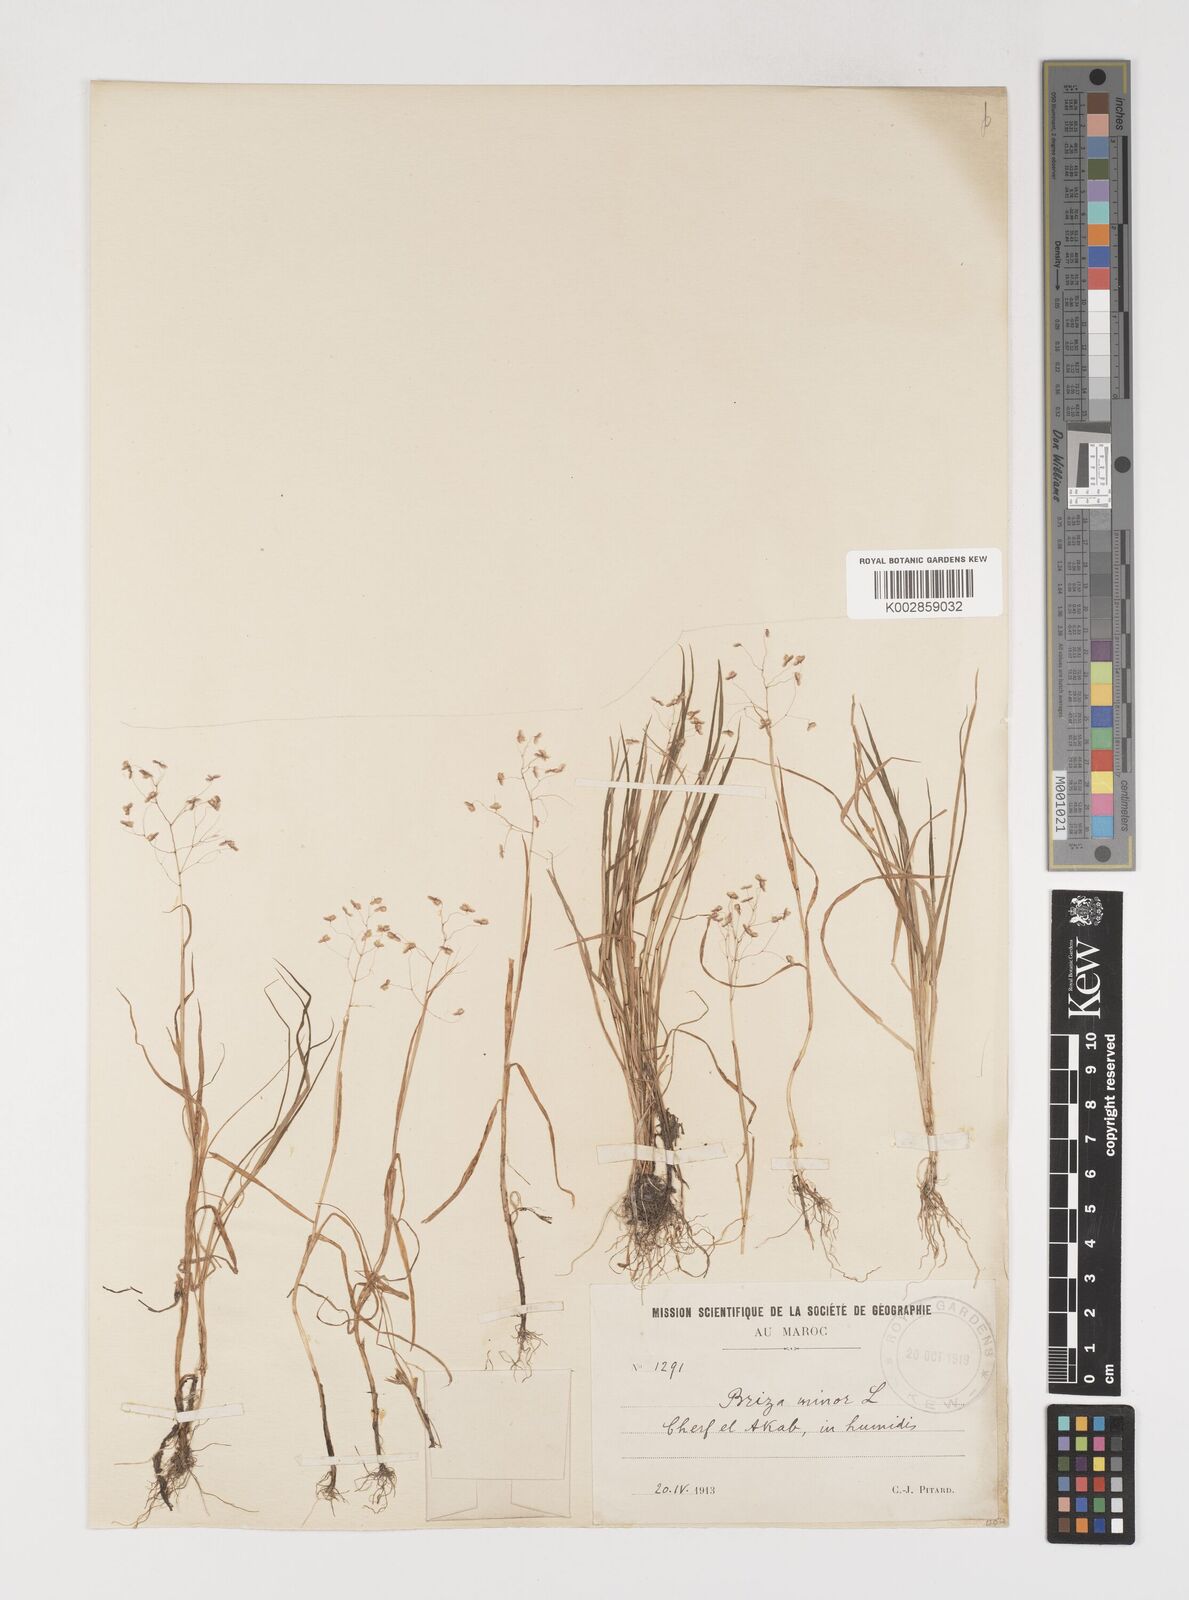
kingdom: Plantae
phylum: Tracheophyta
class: Liliopsida
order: Poales
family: Poaceae
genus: Briza
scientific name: Briza minor
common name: Lesser quaking-grass
